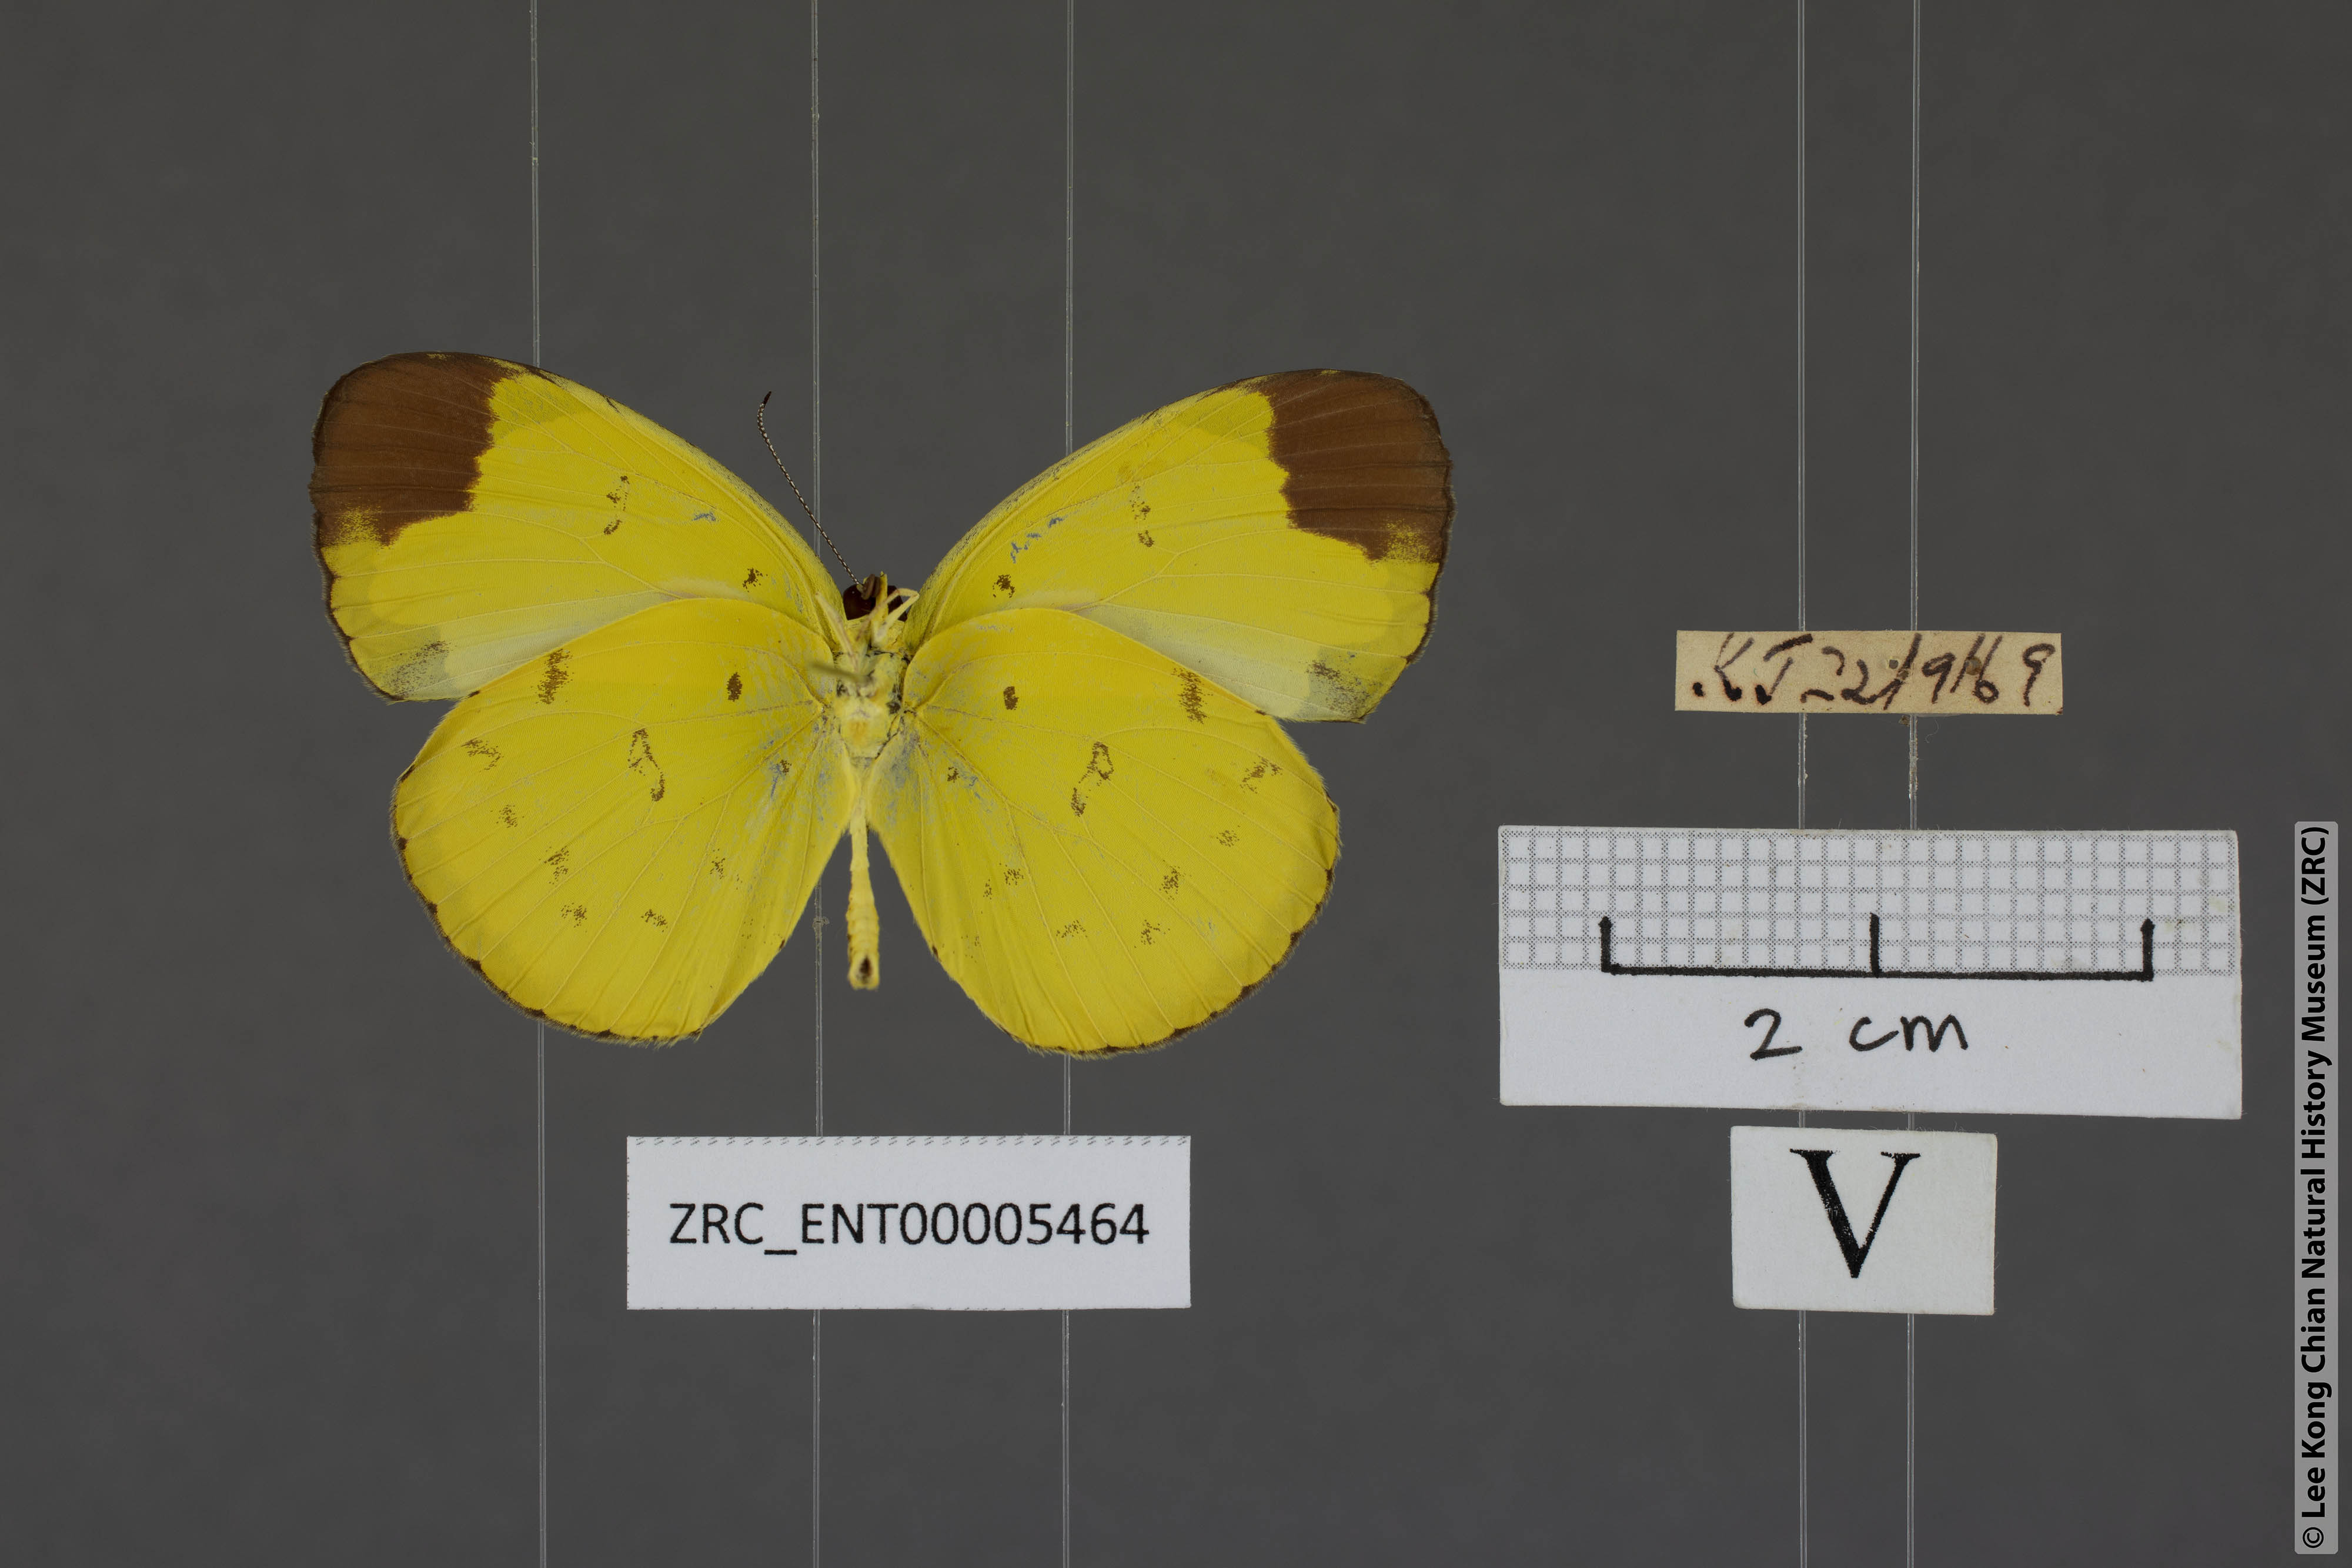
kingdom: Animalia
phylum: Arthropoda
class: Insecta
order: Lepidoptera
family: Pieridae
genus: Eurema
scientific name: Eurema sari
